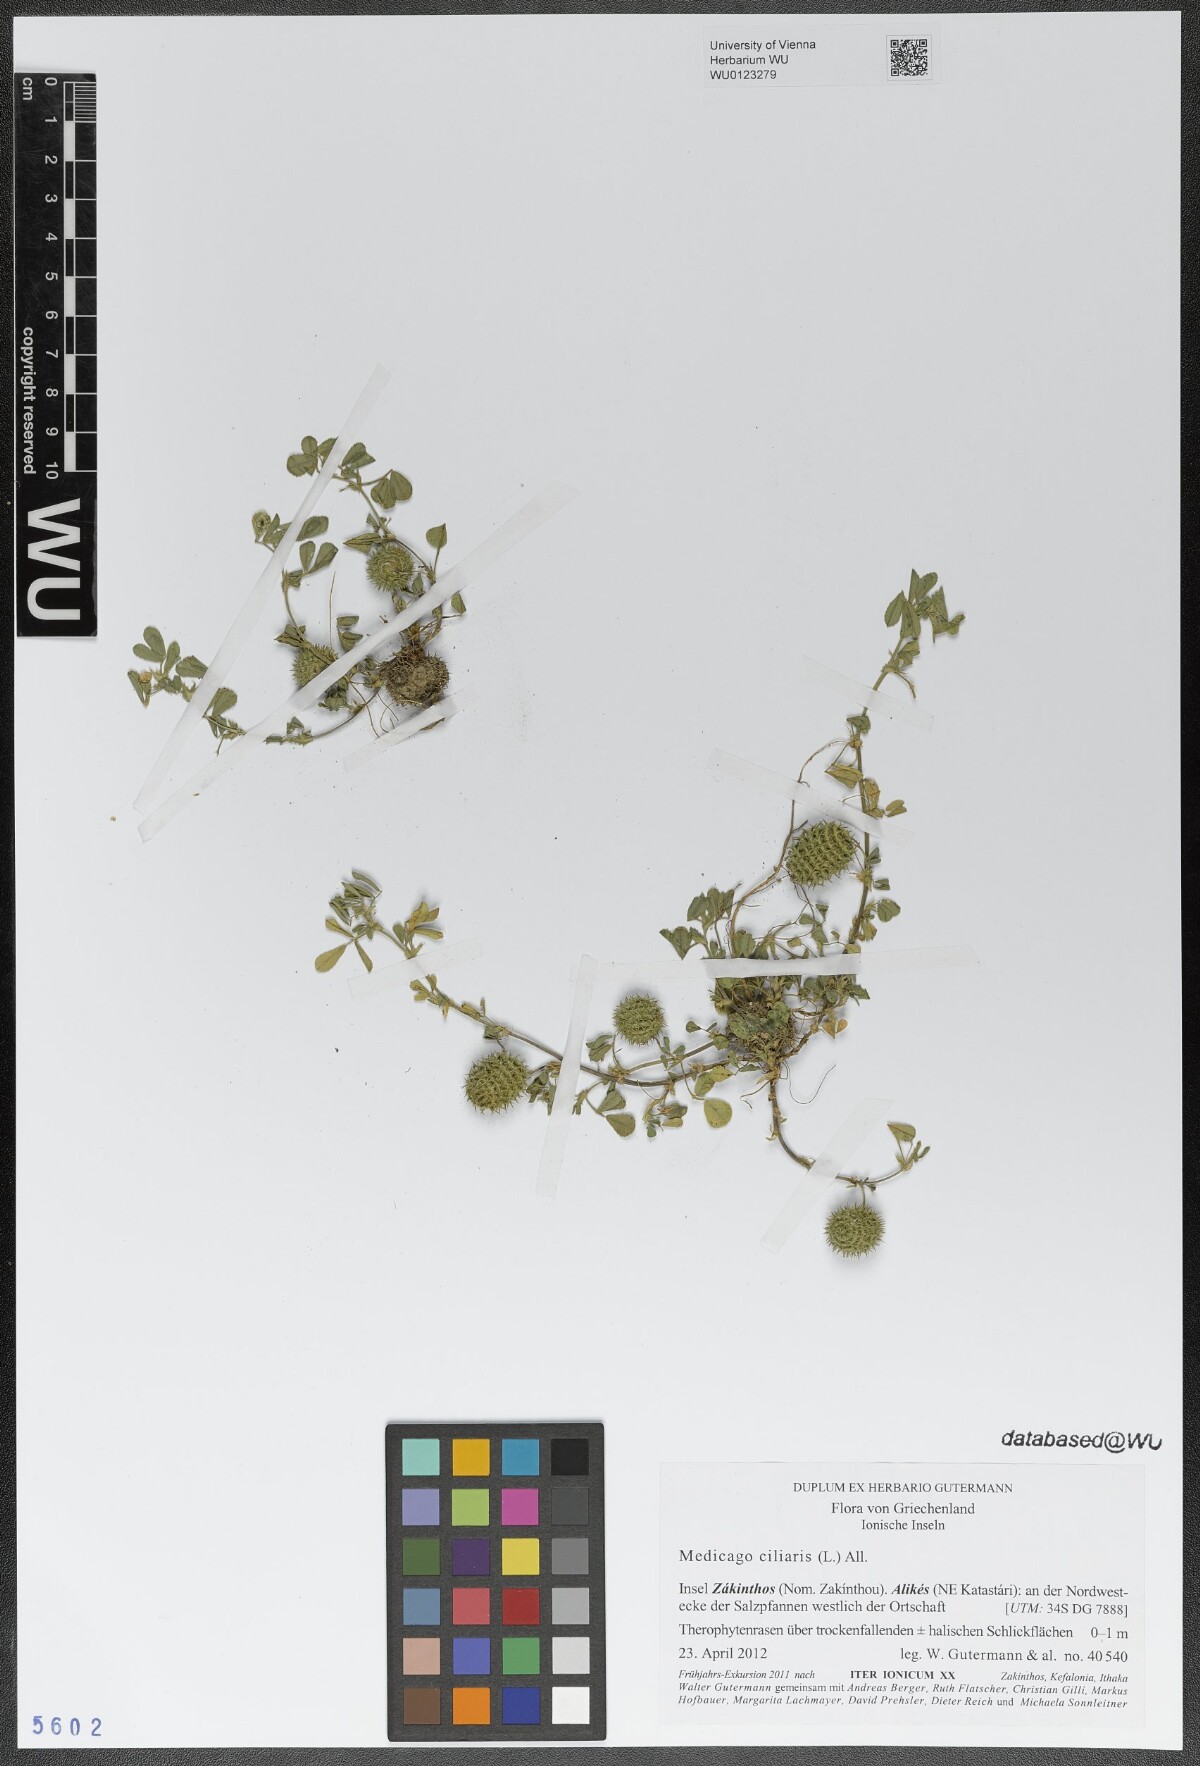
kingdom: Plantae
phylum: Tracheophyta
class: Magnoliopsida
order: Fabales
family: Fabaceae
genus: Medicago
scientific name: Medicago ciliaris
